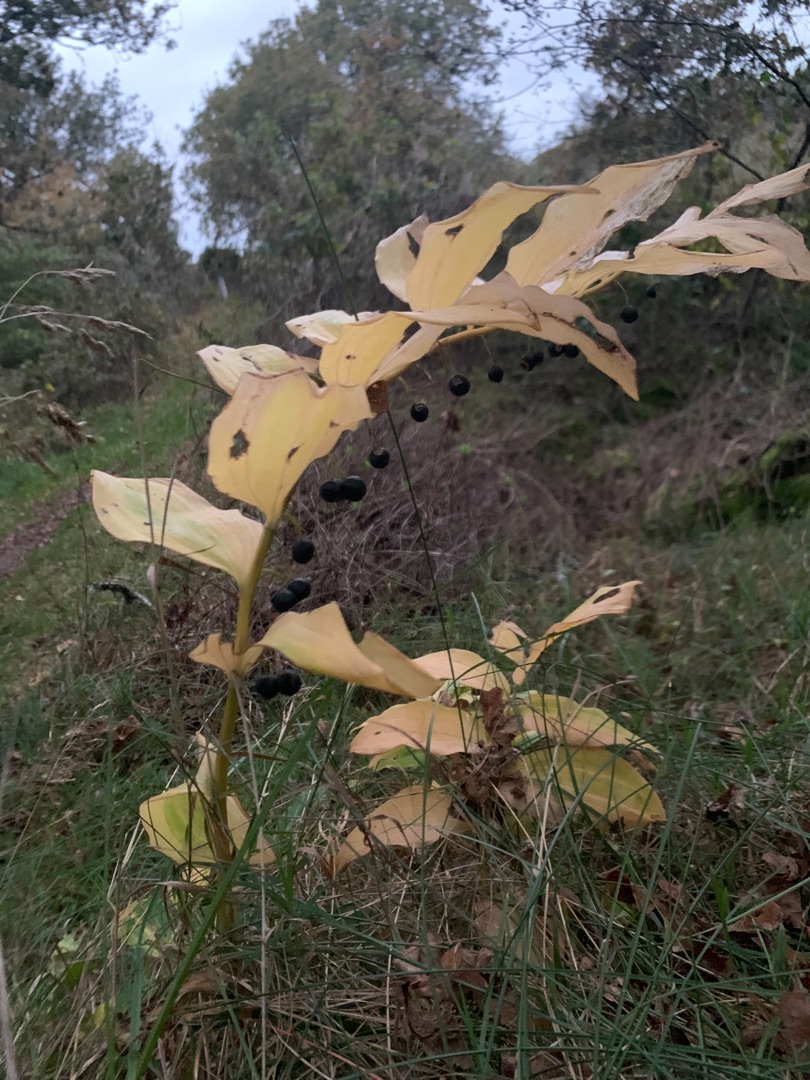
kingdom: Plantae
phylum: Tracheophyta
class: Liliopsida
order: Asparagales
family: Asparagaceae
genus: Polygonatum
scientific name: Polygonatum multiflorum
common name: Stor konval
